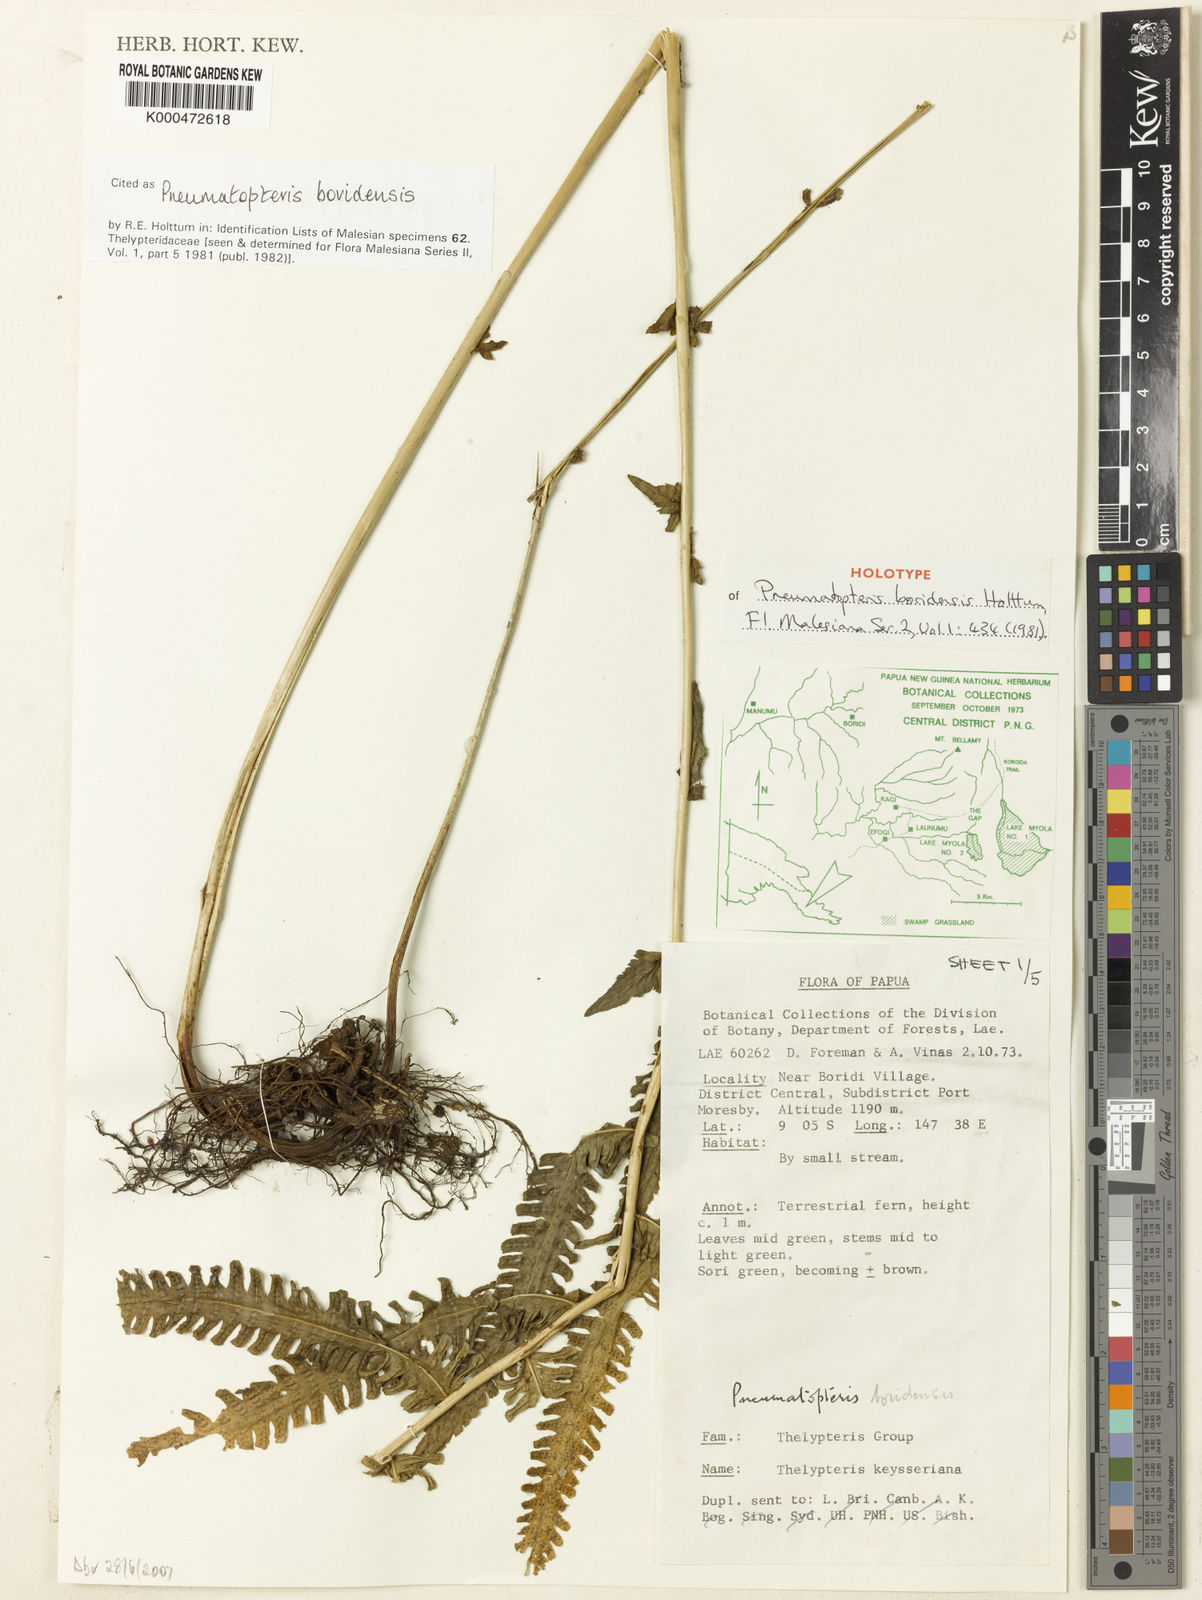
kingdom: Plantae
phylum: Tracheophyta
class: Polypodiopsida
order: Polypodiales
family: Thelypteridaceae
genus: Reholttumia
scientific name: Reholttumia boridensis
